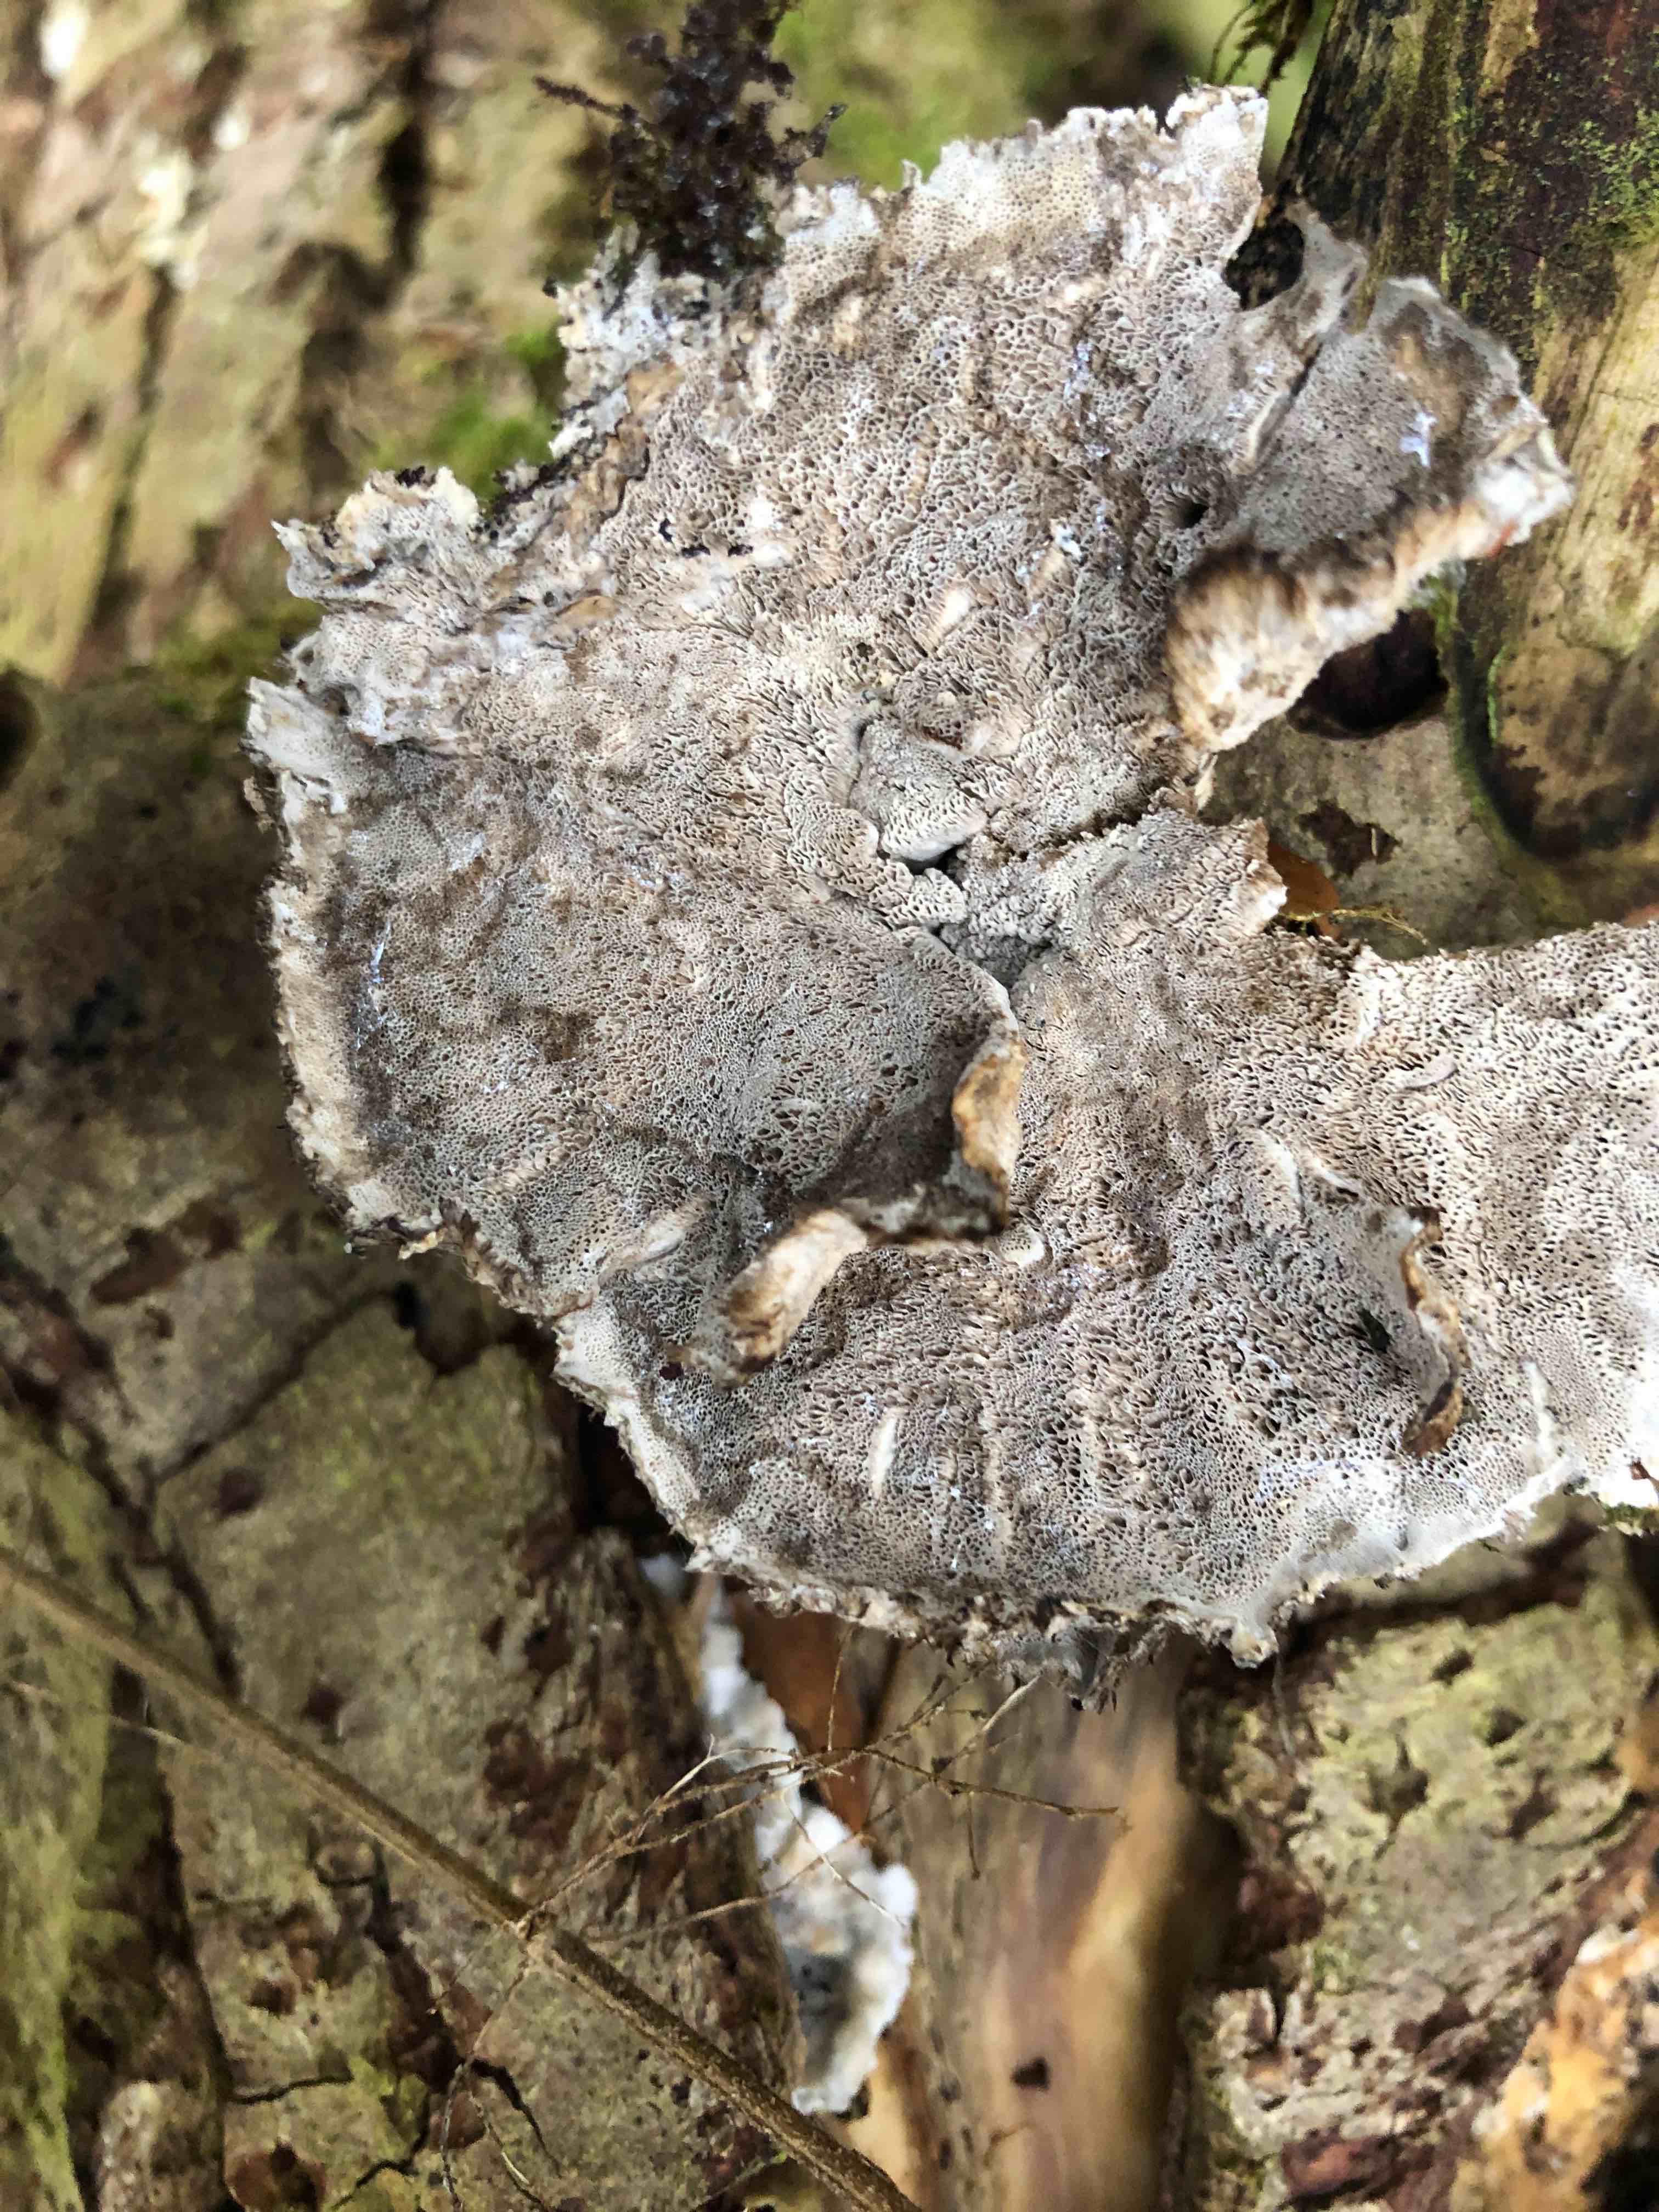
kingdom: Fungi
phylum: Basidiomycota
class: Agaricomycetes
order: Polyporales
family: Phanerochaetaceae
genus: Bjerkandera
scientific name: Bjerkandera adusta
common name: sveden sodporesvamp
